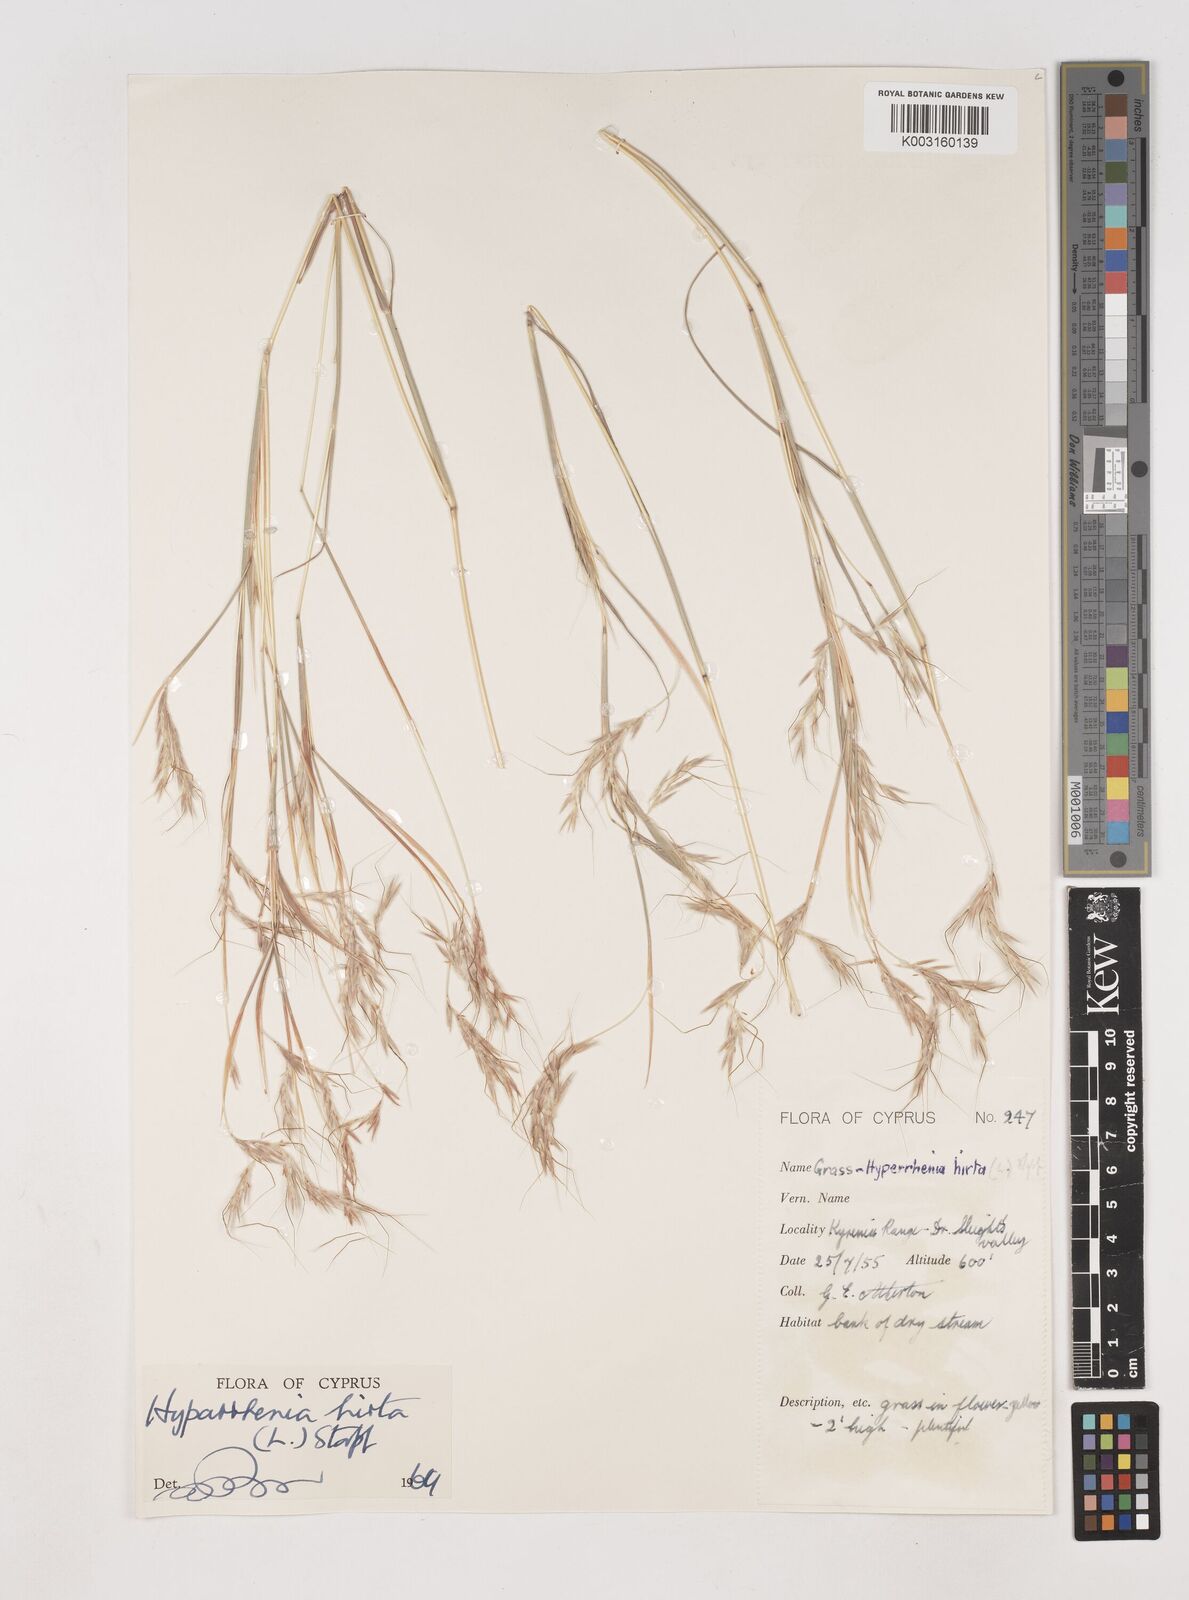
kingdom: Plantae
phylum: Tracheophyta
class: Liliopsida
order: Poales
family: Poaceae
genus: Hyparrhenia
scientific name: Hyparrhenia hirta
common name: Thatching grass
